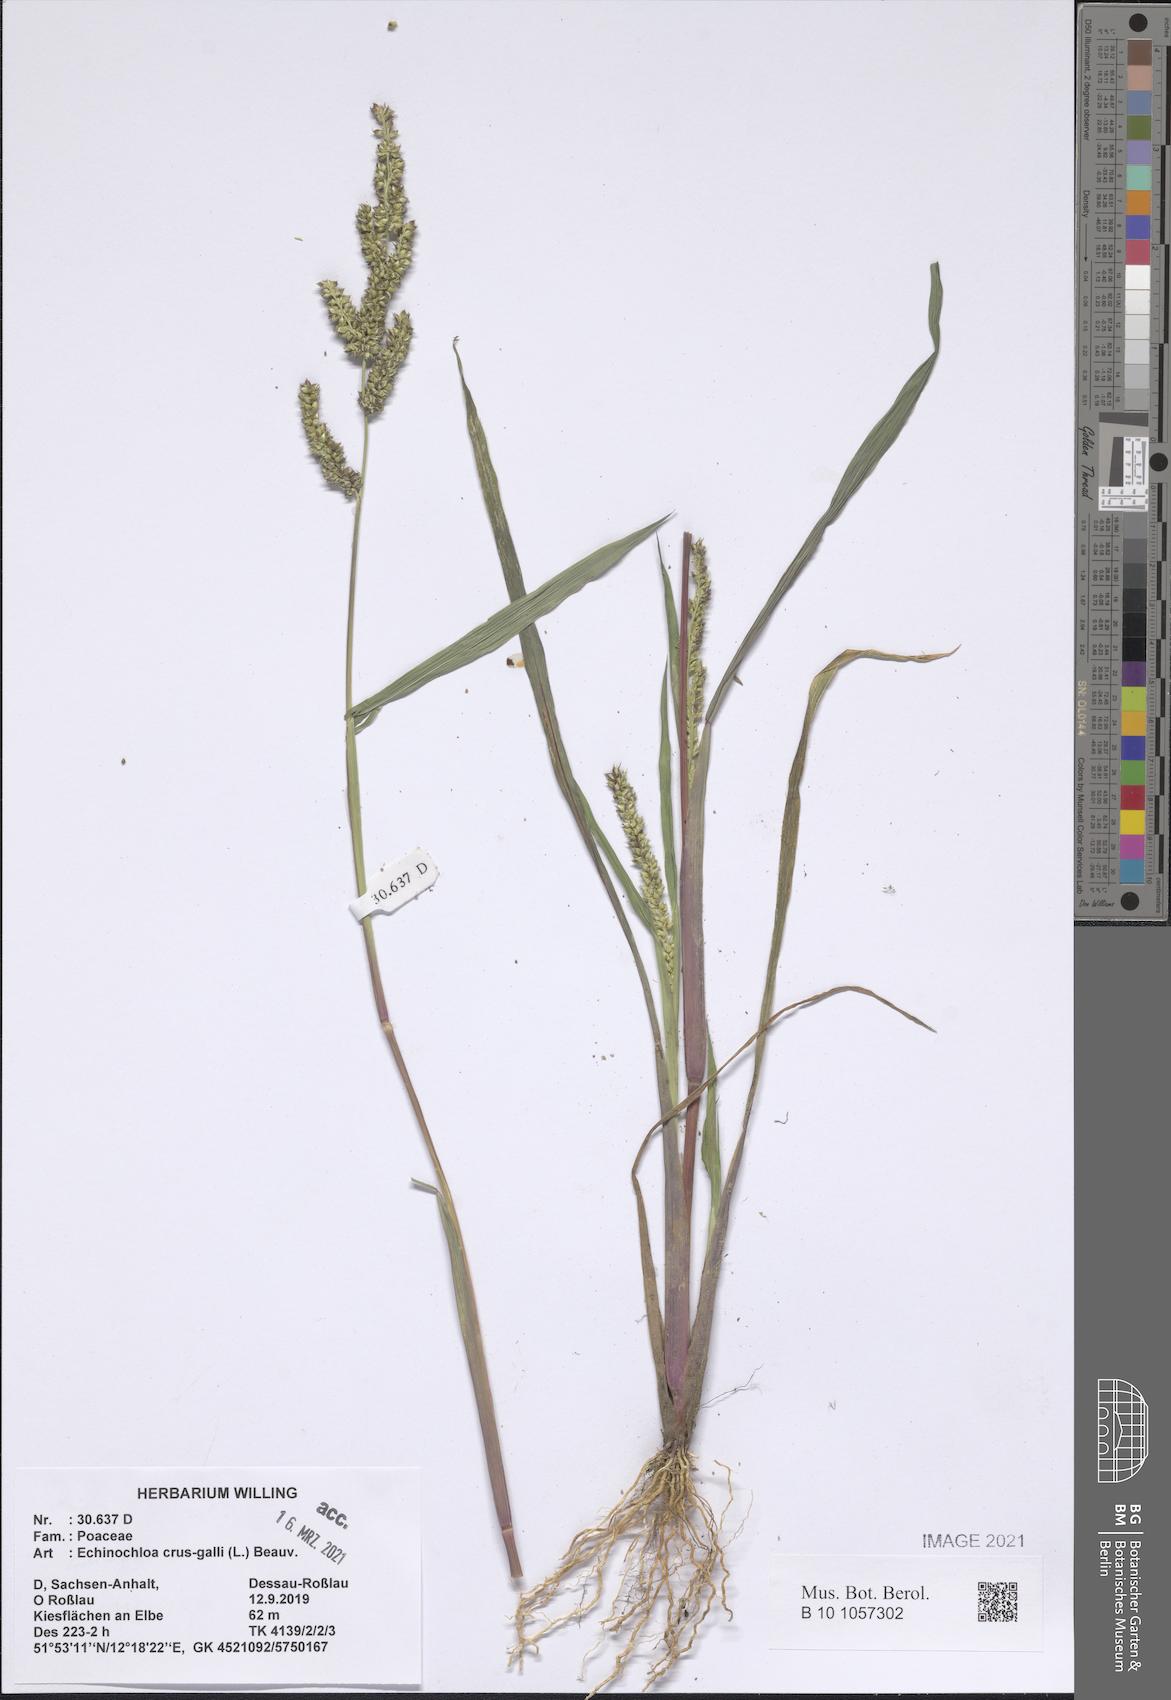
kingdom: Plantae
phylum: Tracheophyta
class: Liliopsida
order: Poales
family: Poaceae
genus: Echinochloa
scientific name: Echinochloa crus-galli
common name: Cockspur
